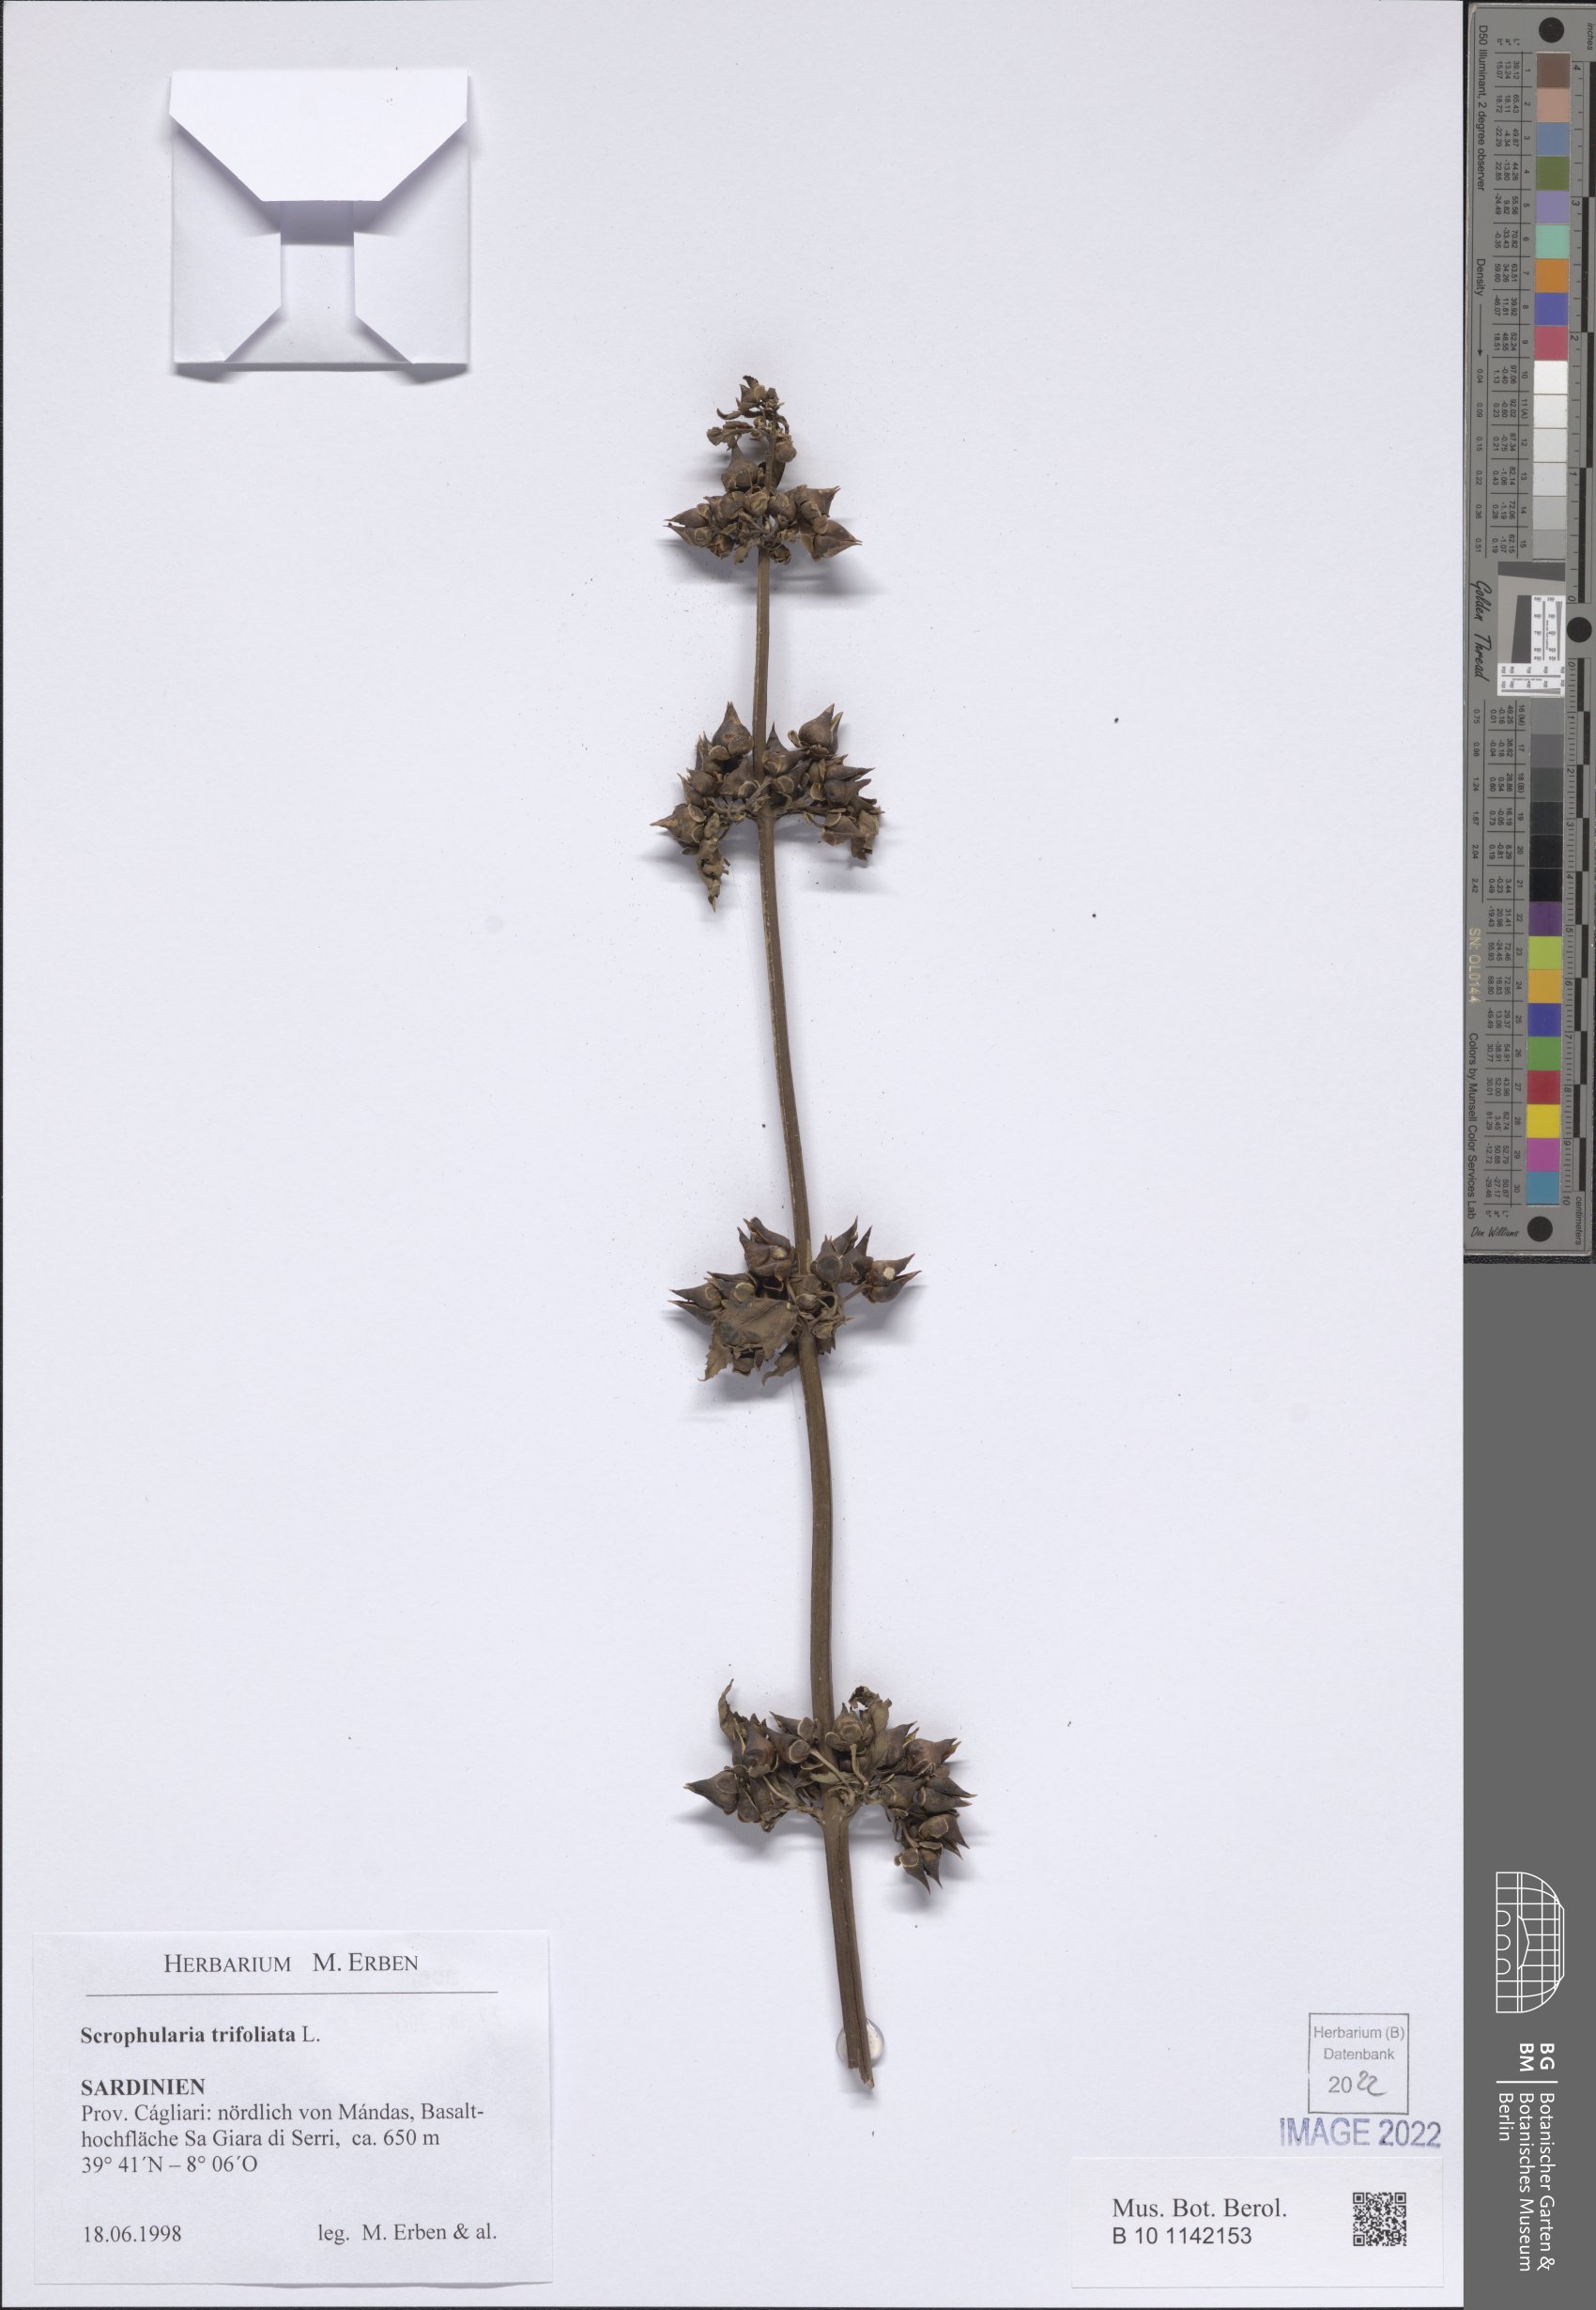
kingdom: Plantae
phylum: Tracheophyta
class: Magnoliopsida
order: Lamiales
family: Scrophulariaceae
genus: Scrophularia
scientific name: Scrophularia trifoliata
